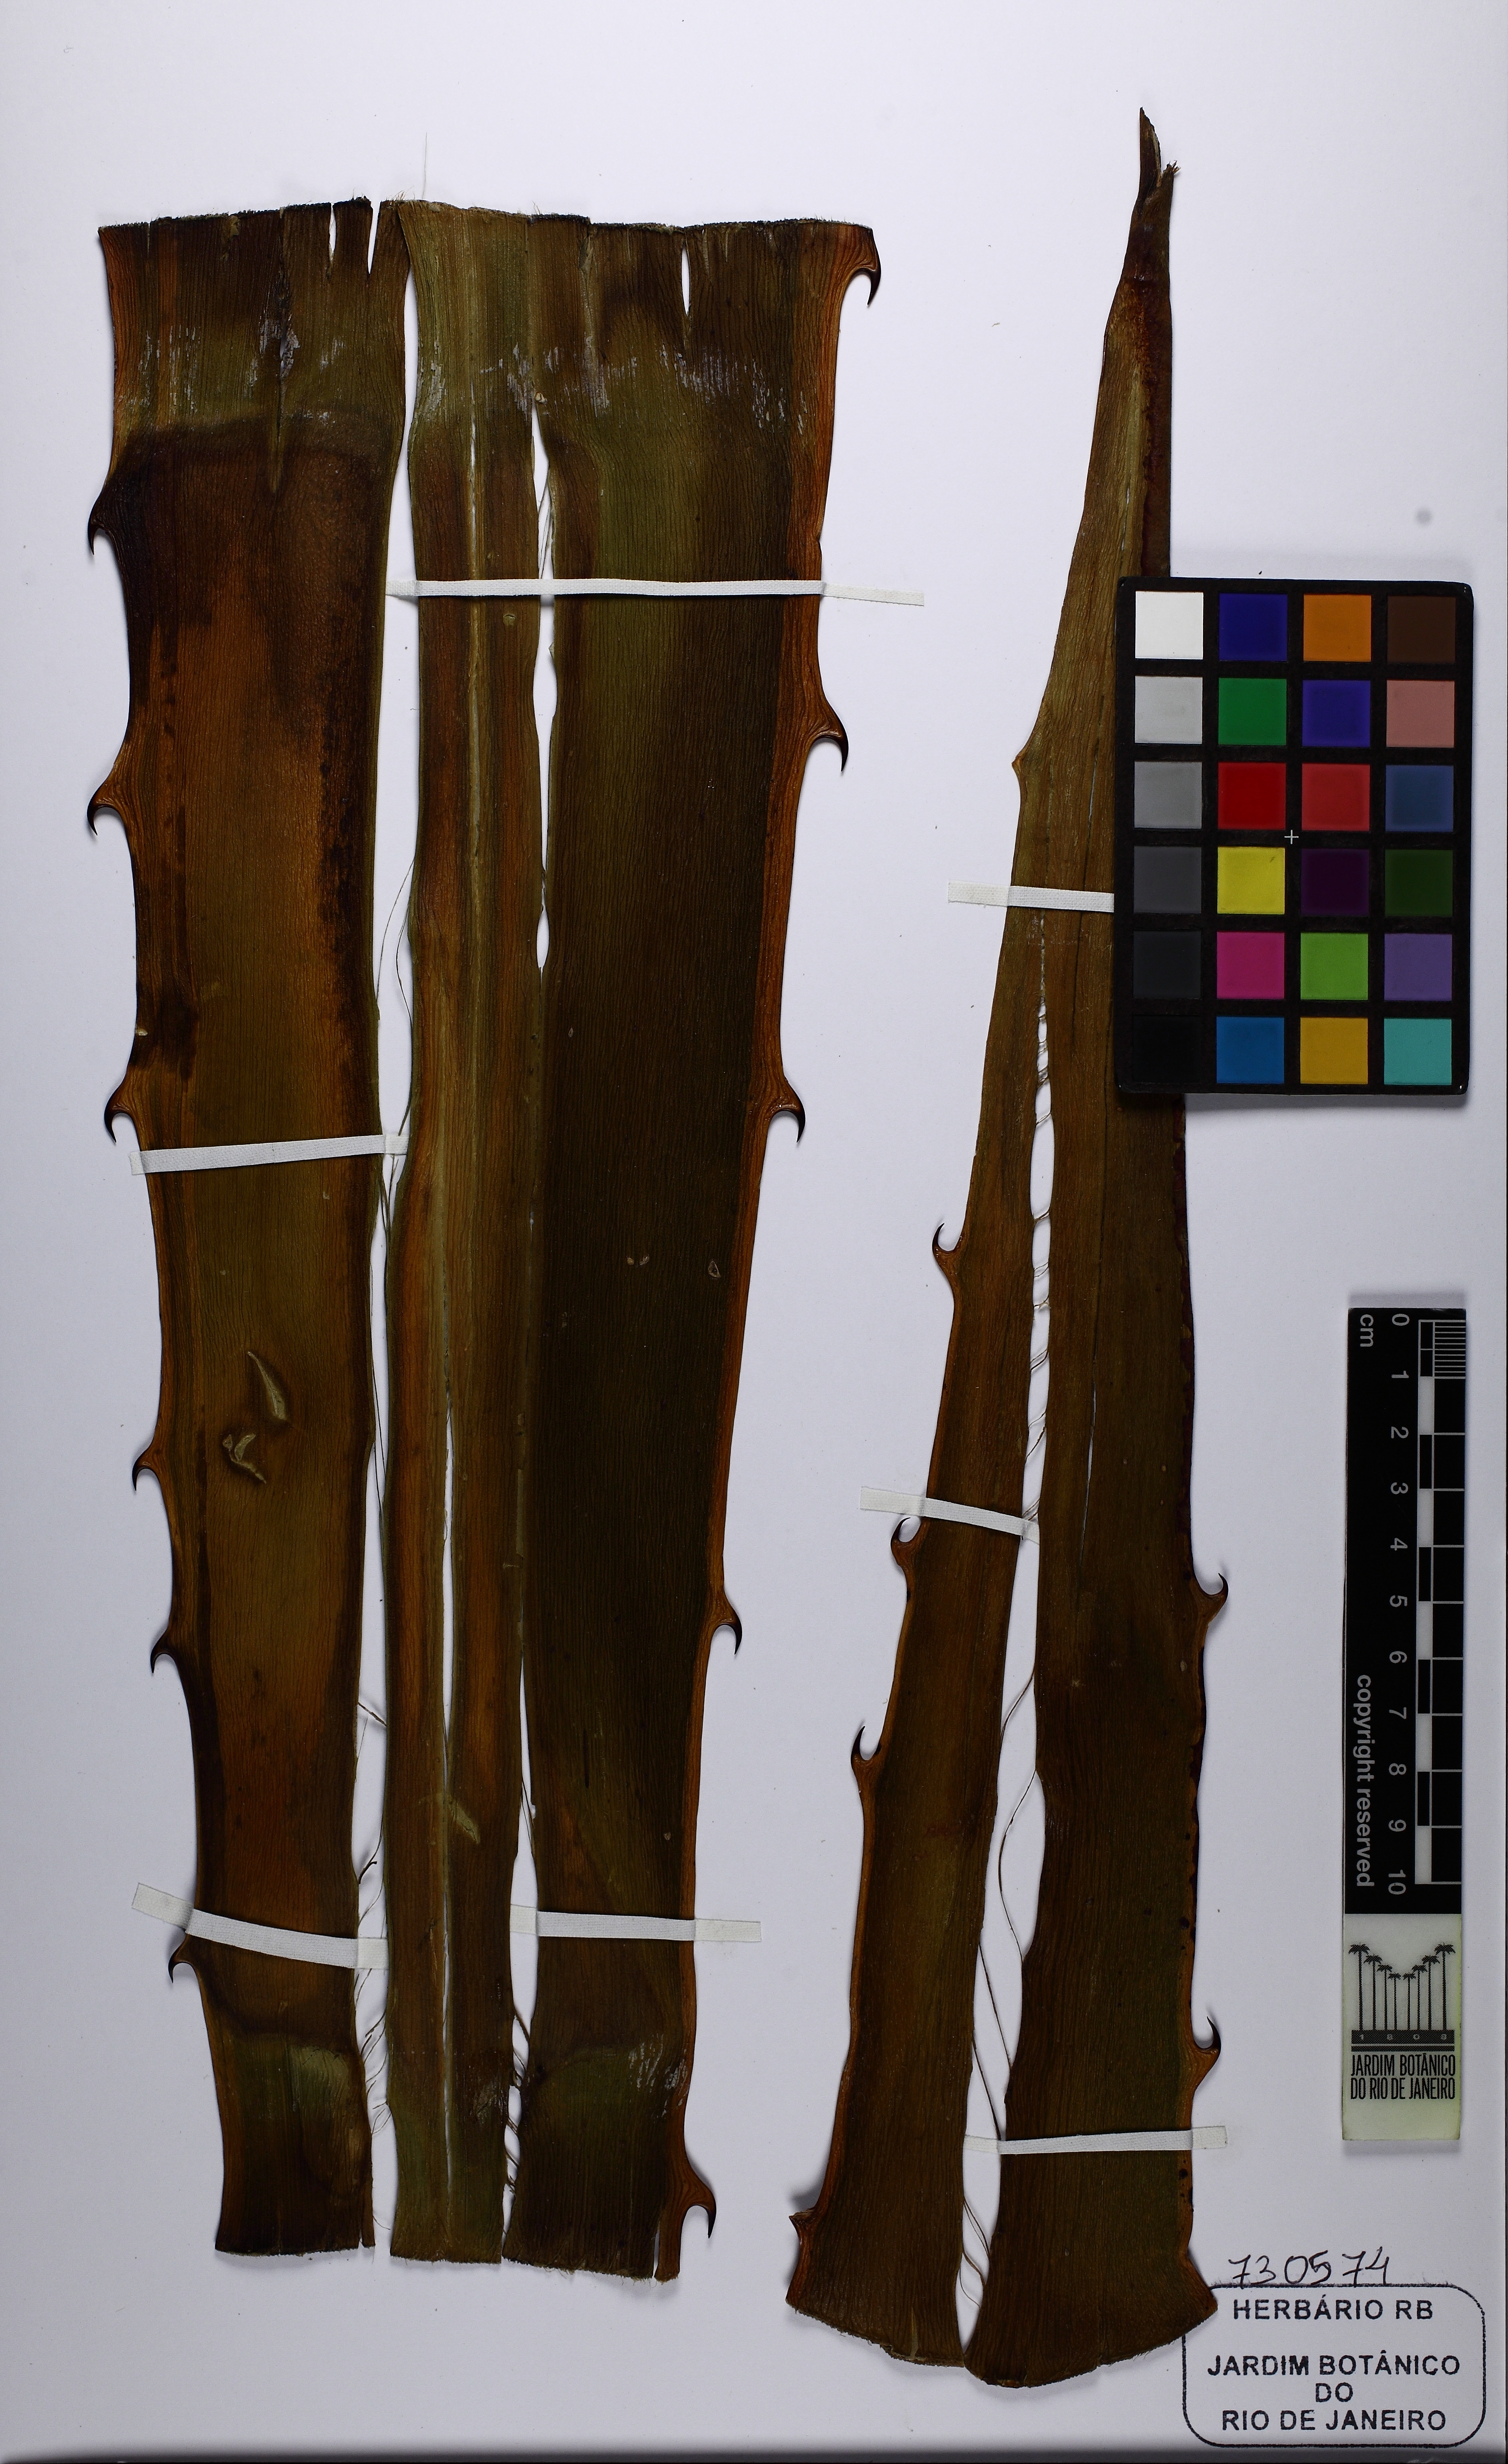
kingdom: Plantae
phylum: Tracheophyta
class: Liliopsida
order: Asparagales
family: Asparagaceae
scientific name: Asparagaceae
